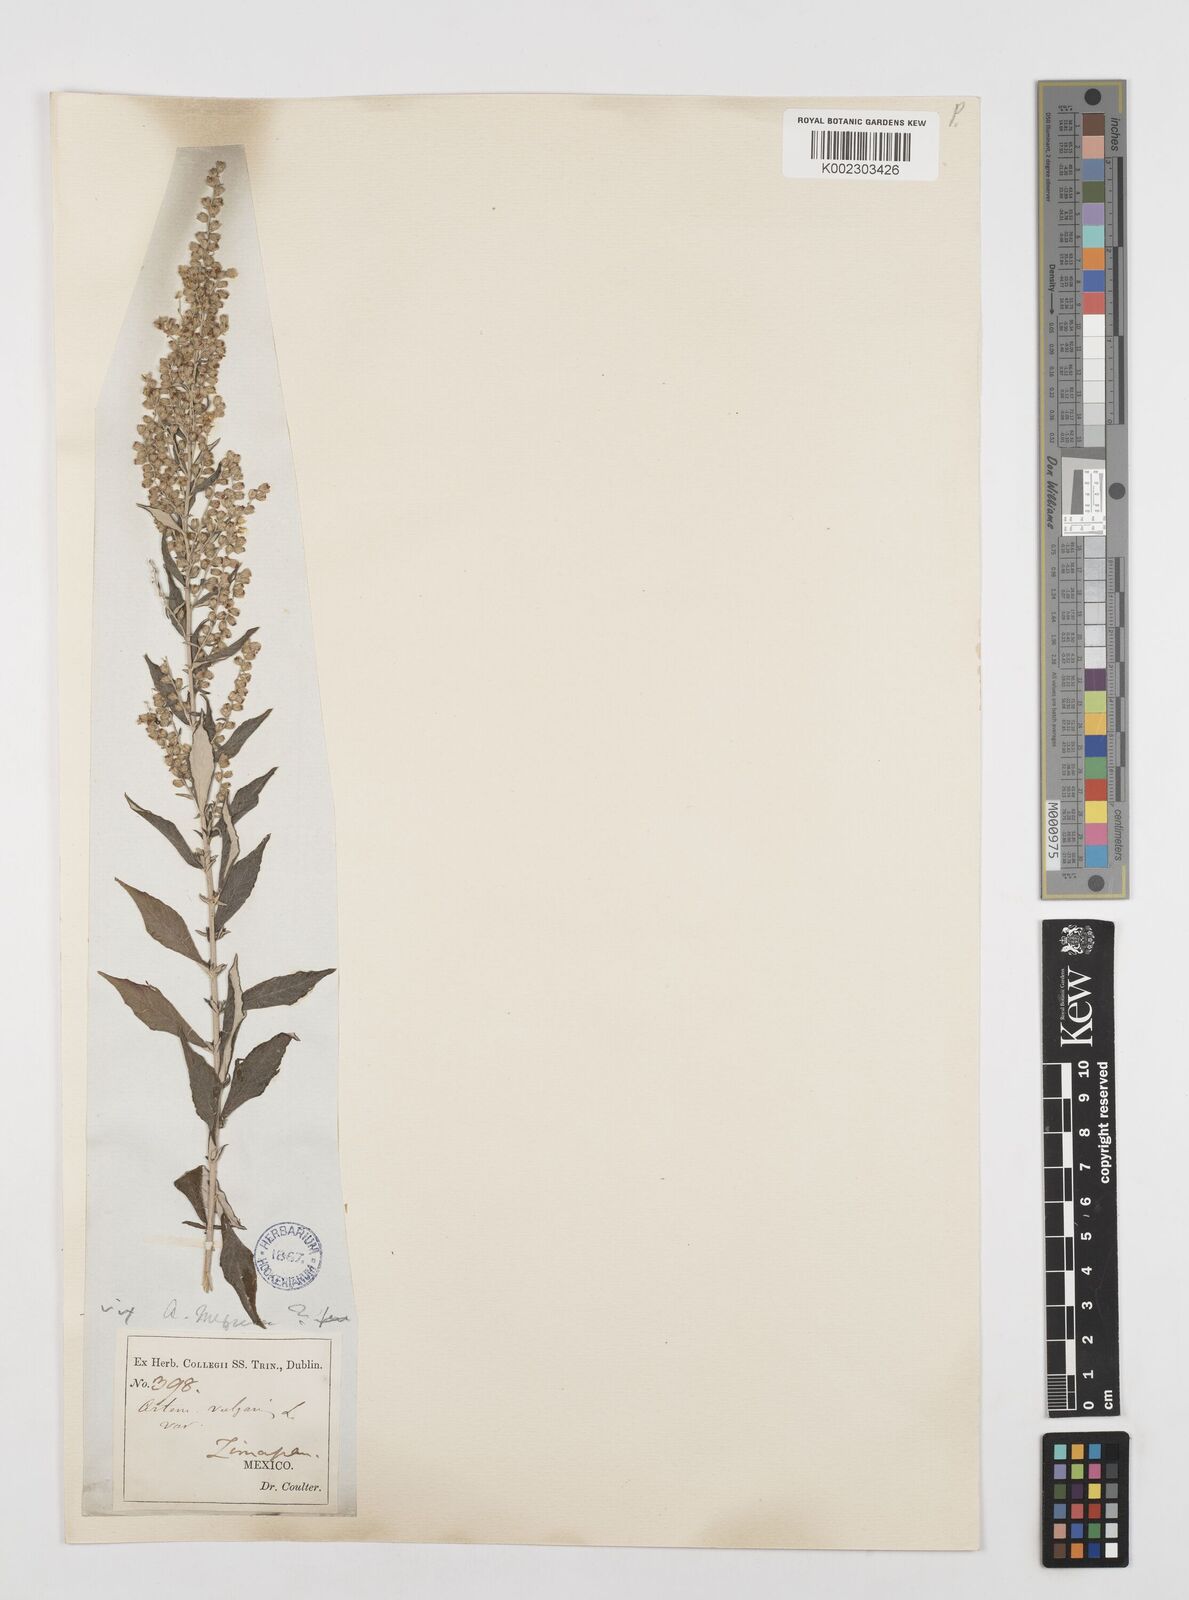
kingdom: Plantae
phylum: Tracheophyta
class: Magnoliopsida
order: Asterales
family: Asteraceae
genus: Artemisia
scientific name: Artemisia ludoviciana
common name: Western mugwort
